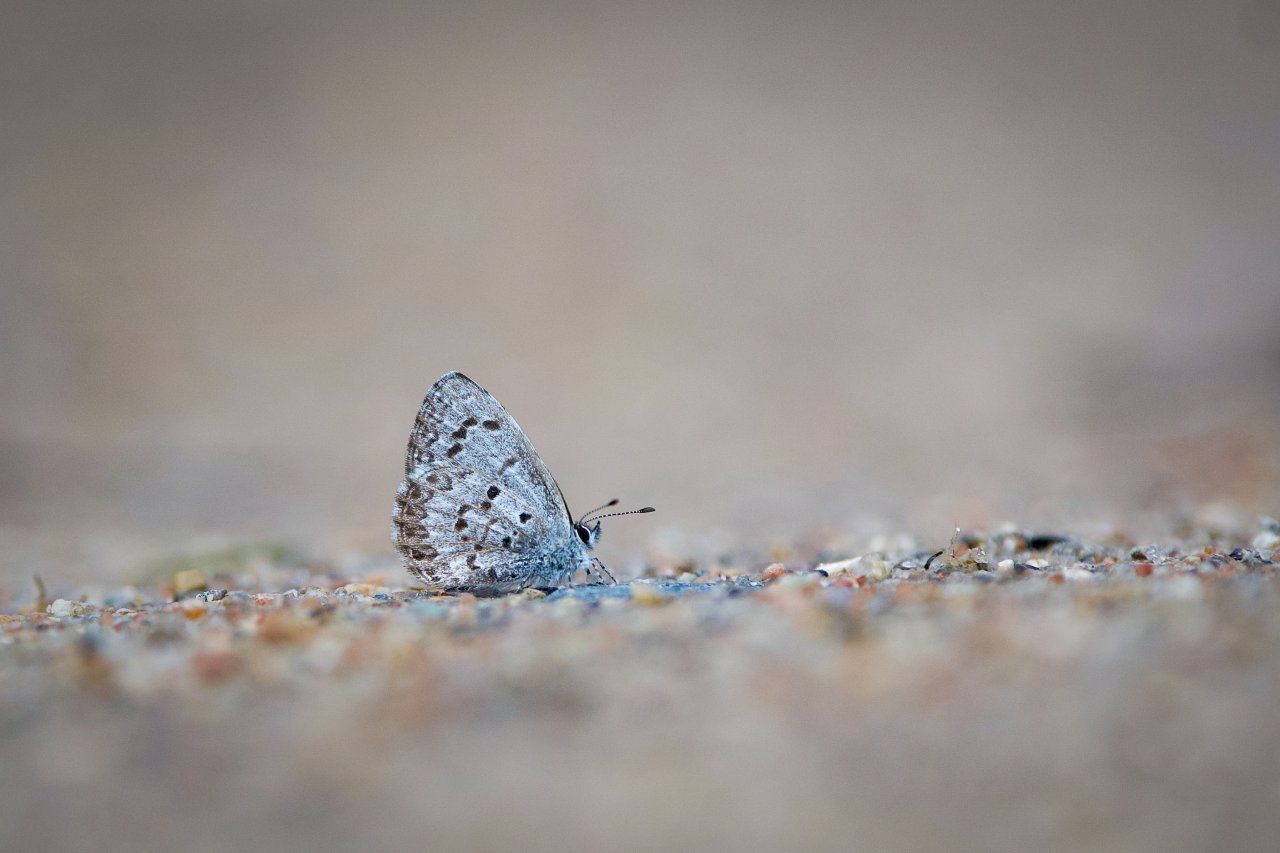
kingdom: Animalia
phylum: Arthropoda
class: Insecta
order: Lepidoptera
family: Lycaenidae
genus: Celastrina
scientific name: Celastrina lucia
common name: Northern Spring Azure
